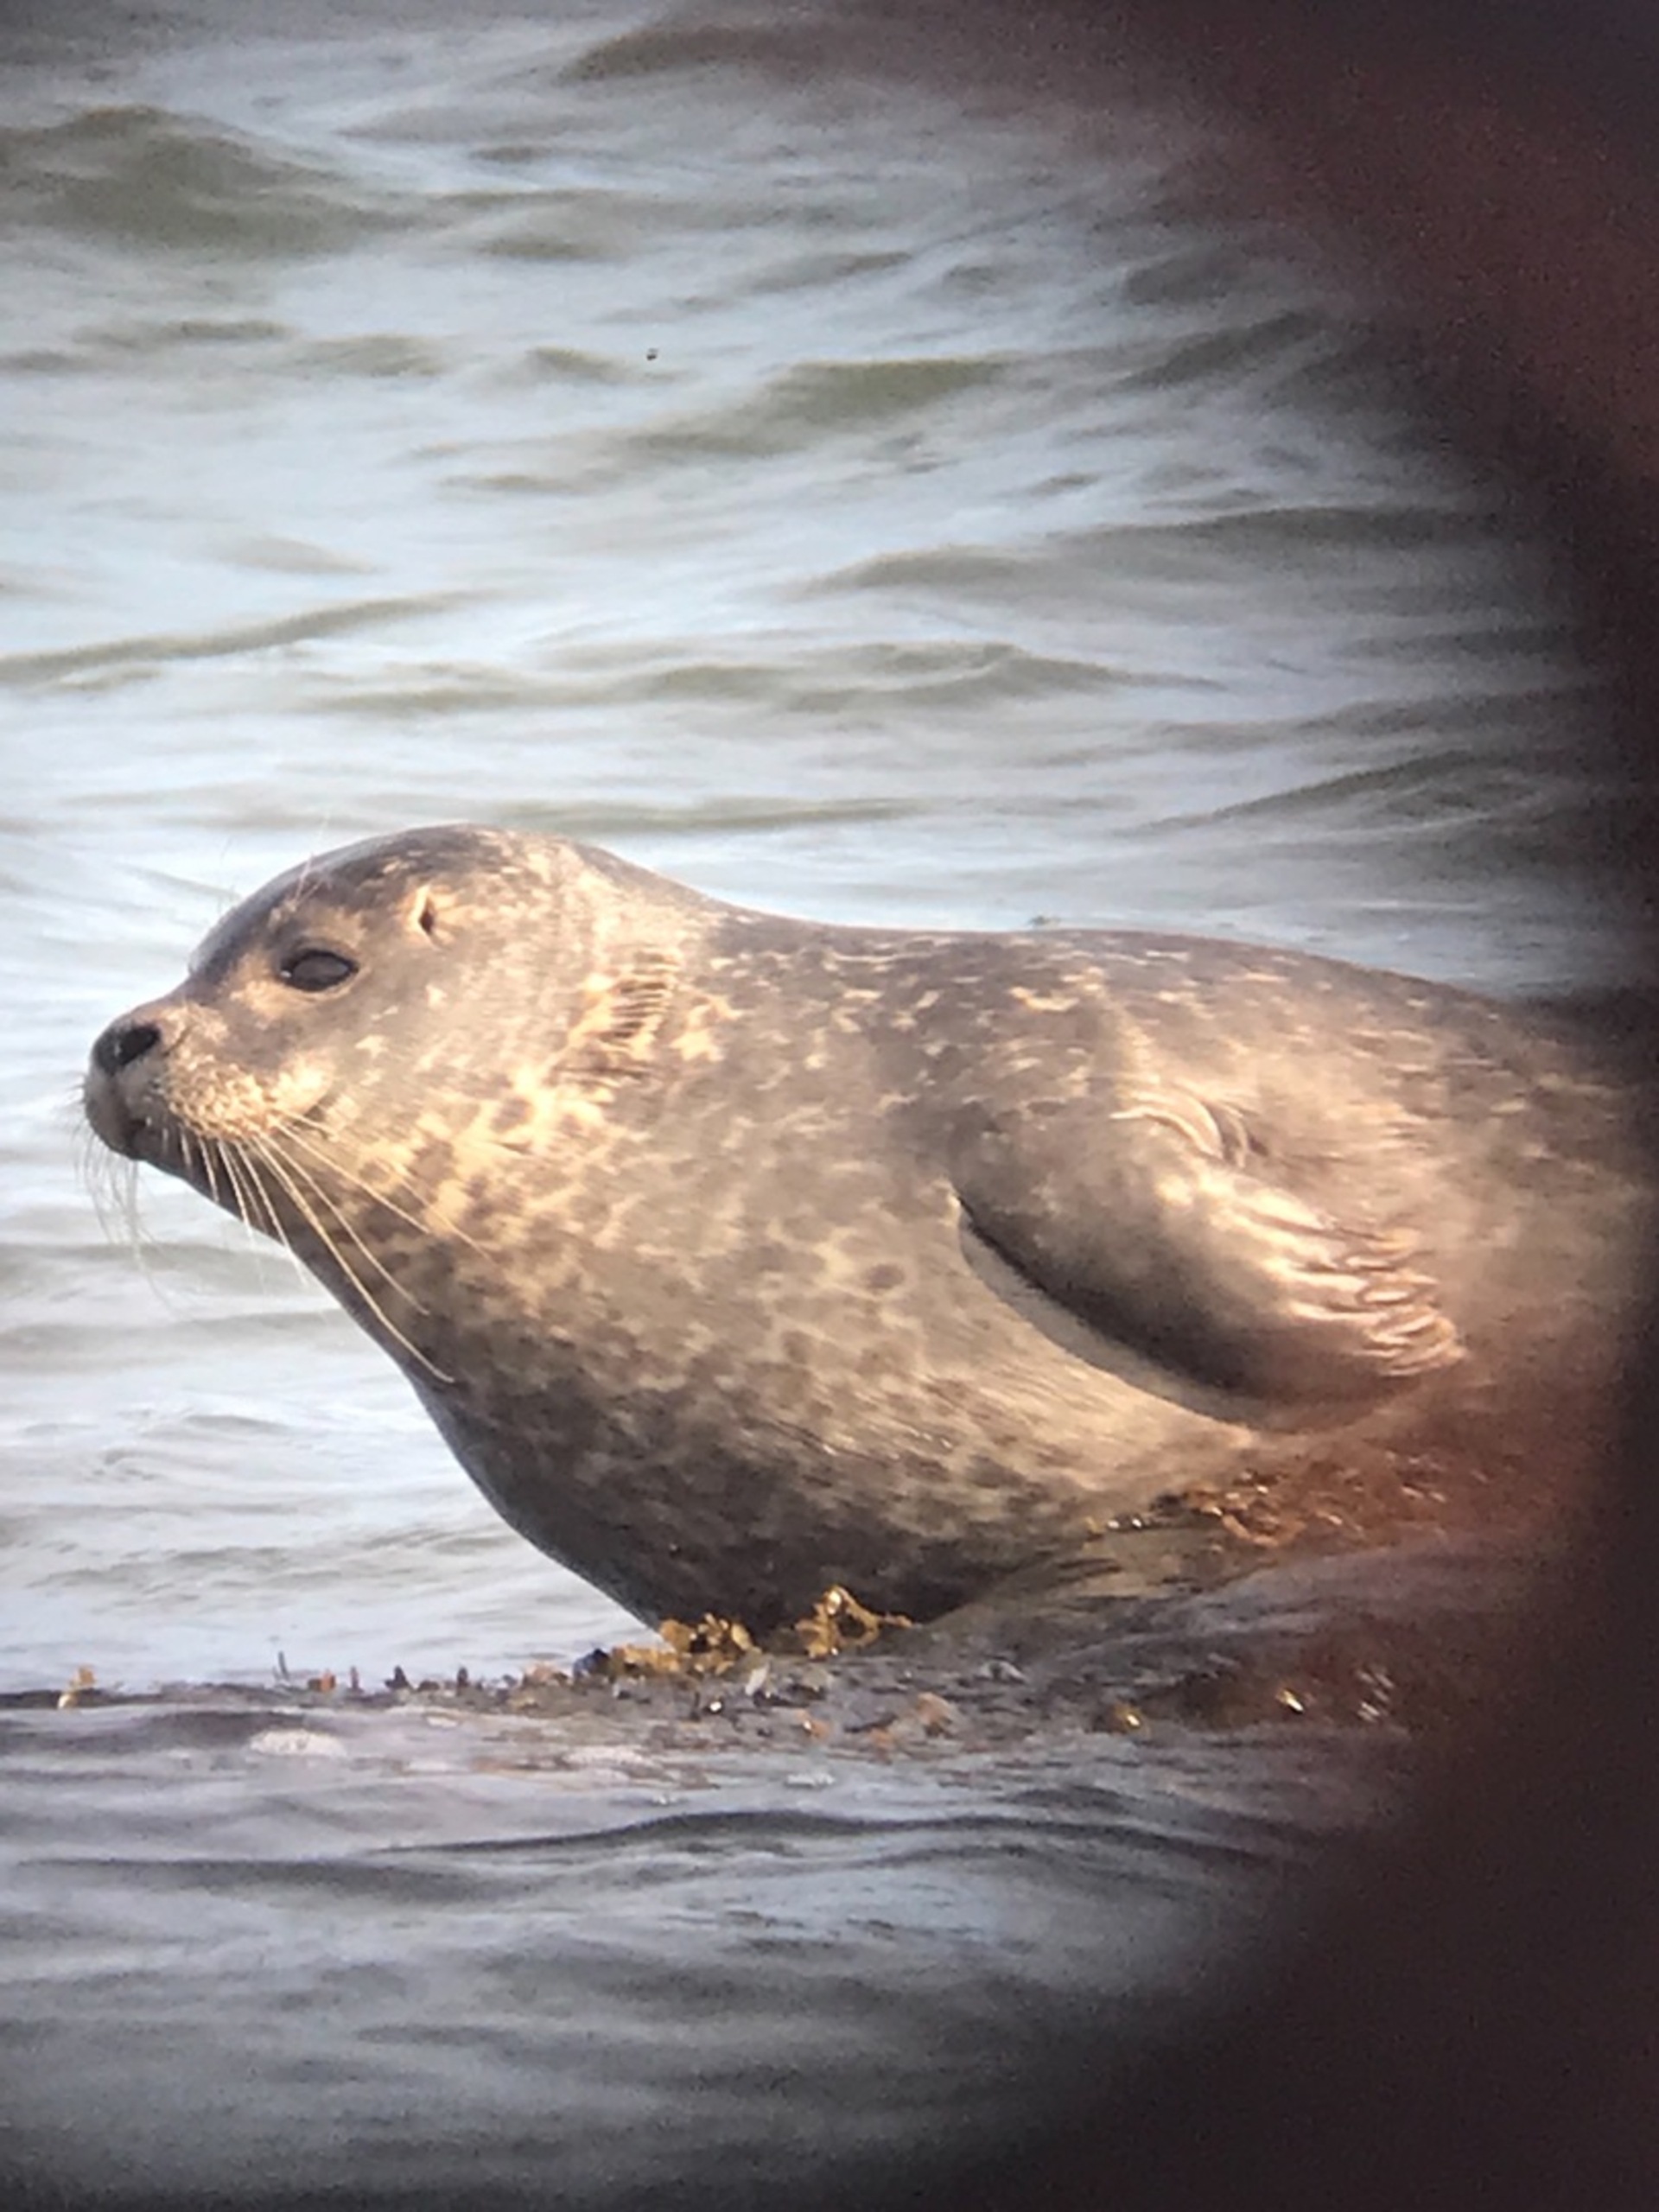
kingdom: Animalia
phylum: Chordata
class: Mammalia
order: Carnivora
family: Phocidae
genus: Phoca
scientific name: Phoca vitulina
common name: Spættet sæl
